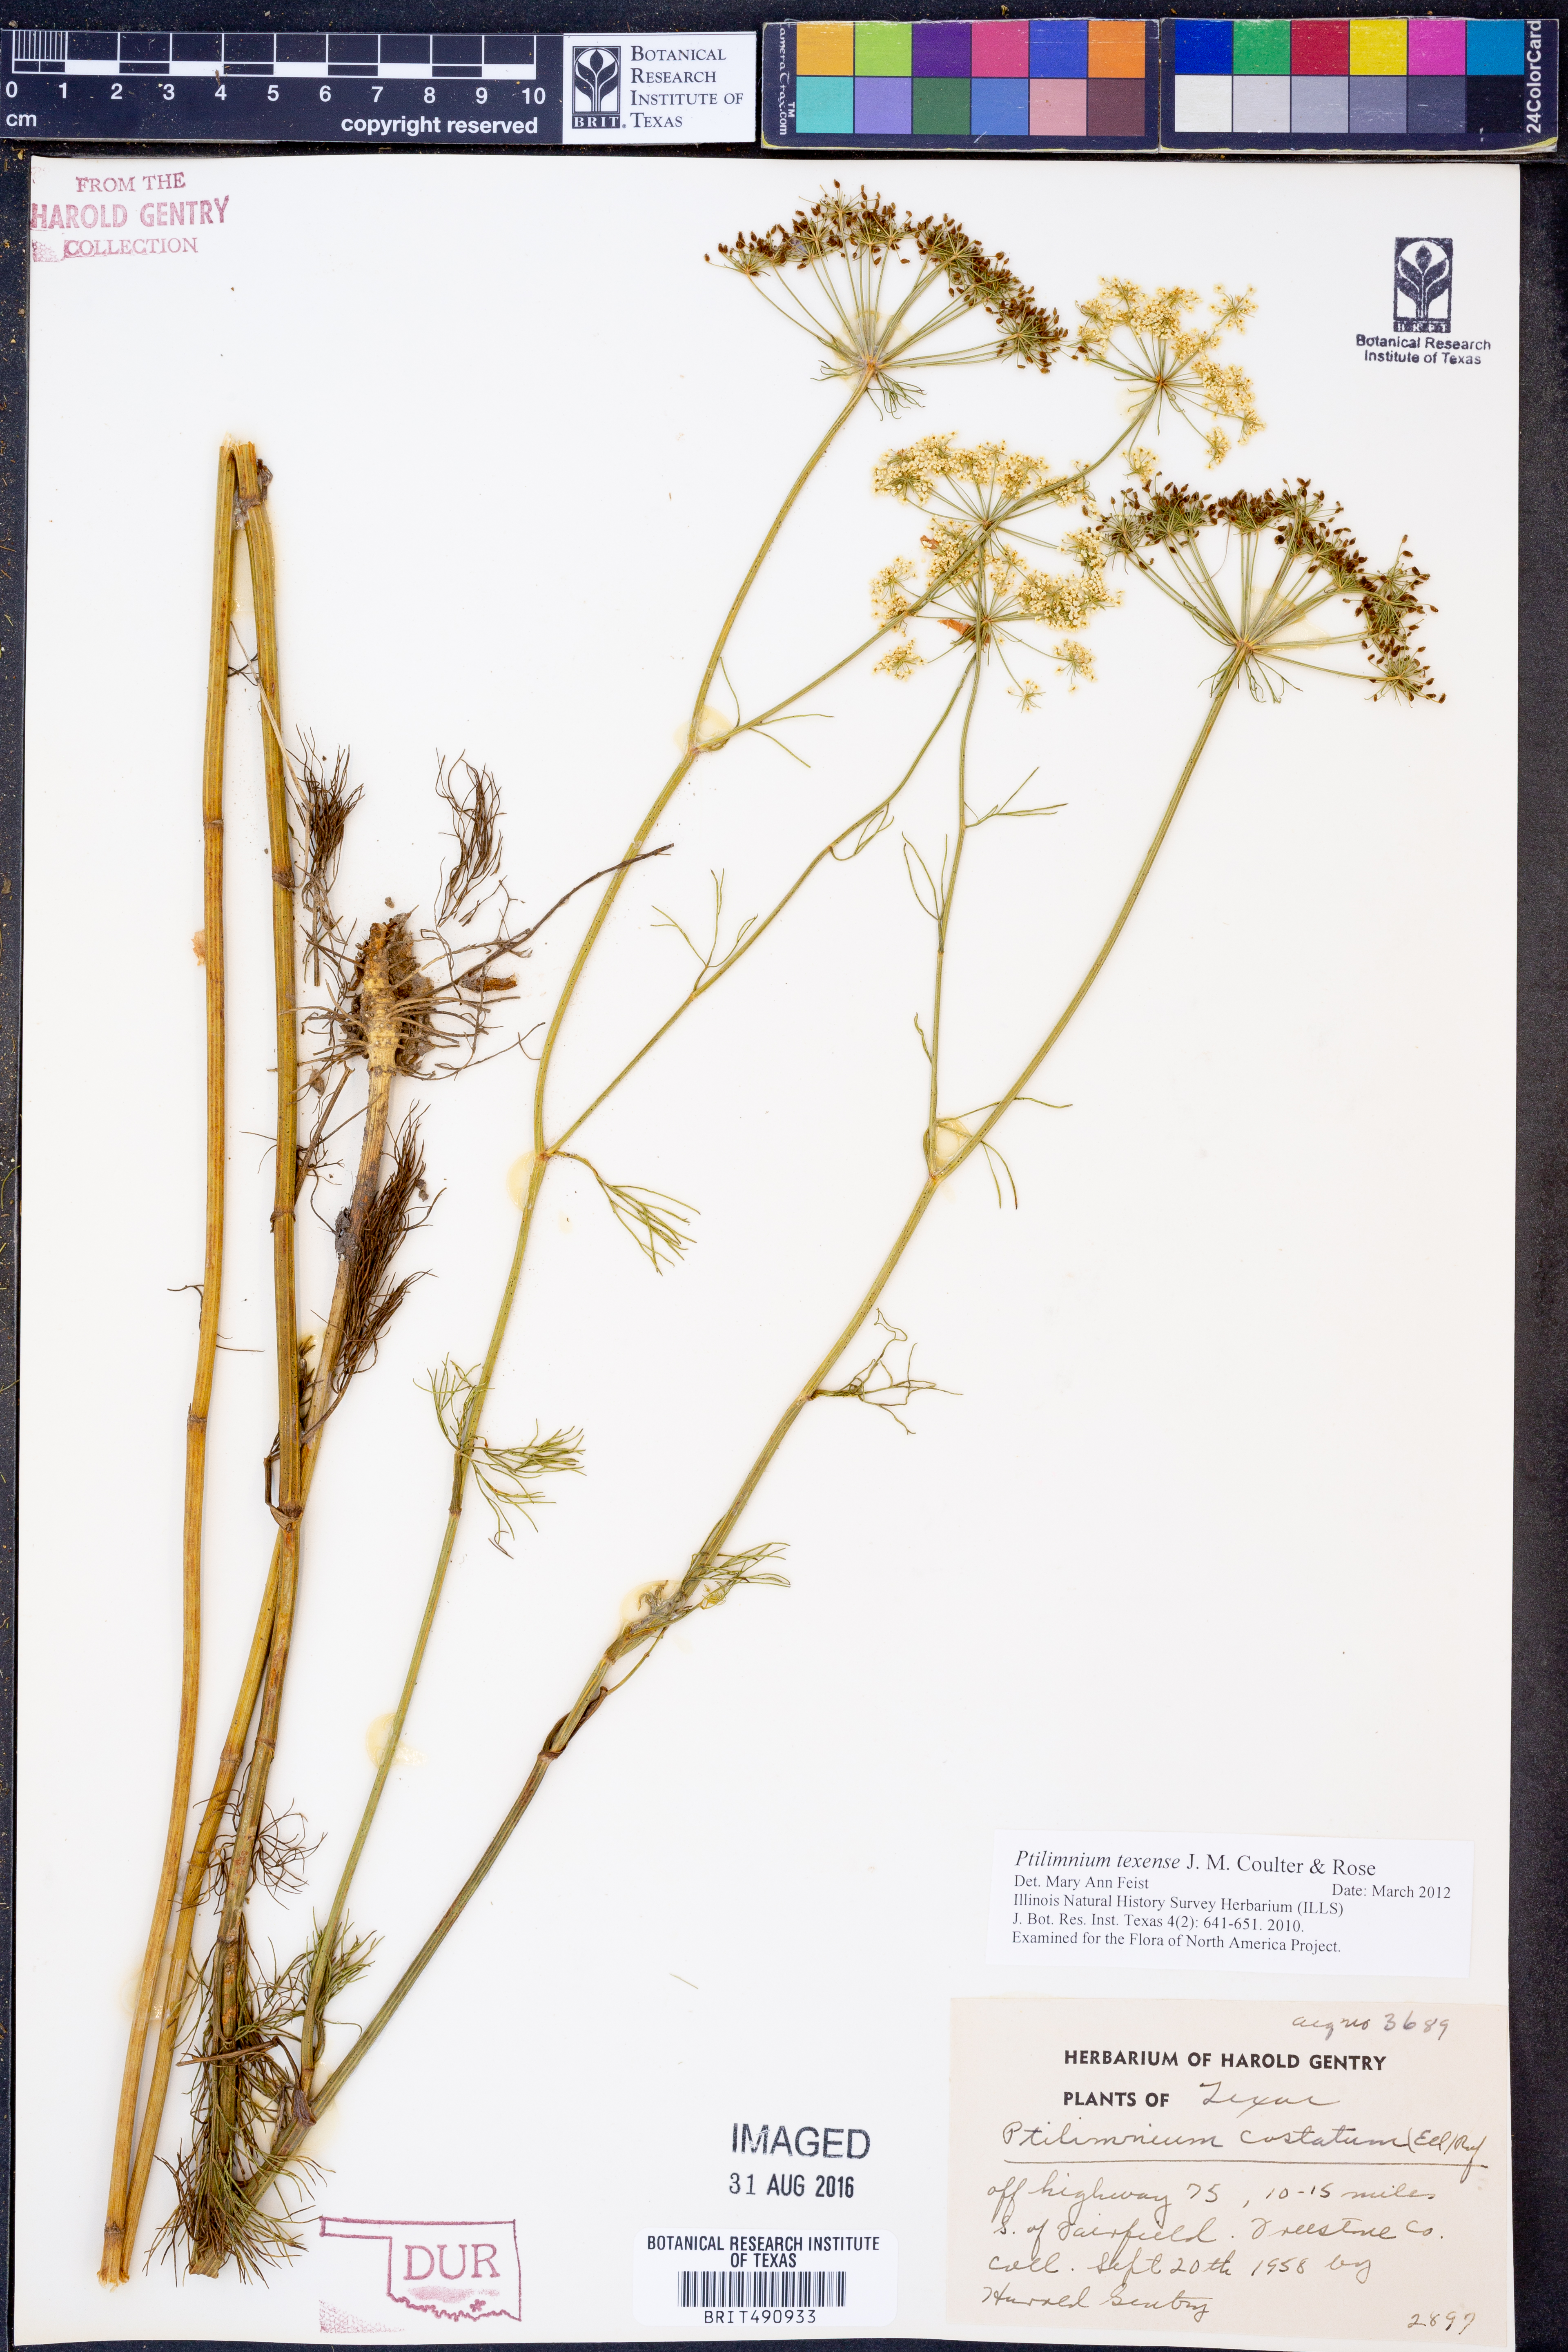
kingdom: Plantae
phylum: Tracheophyta
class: Magnoliopsida
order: Apiales
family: Apiaceae
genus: Ptilimnium
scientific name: Ptilimnium texense
